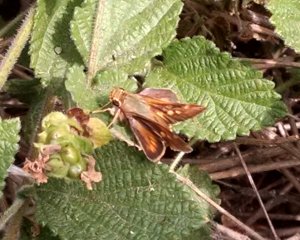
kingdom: Animalia
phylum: Arthropoda
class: Insecta
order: Lepidoptera
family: Hesperiidae
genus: Lon
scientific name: Lon melane
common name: Umber Skipper
